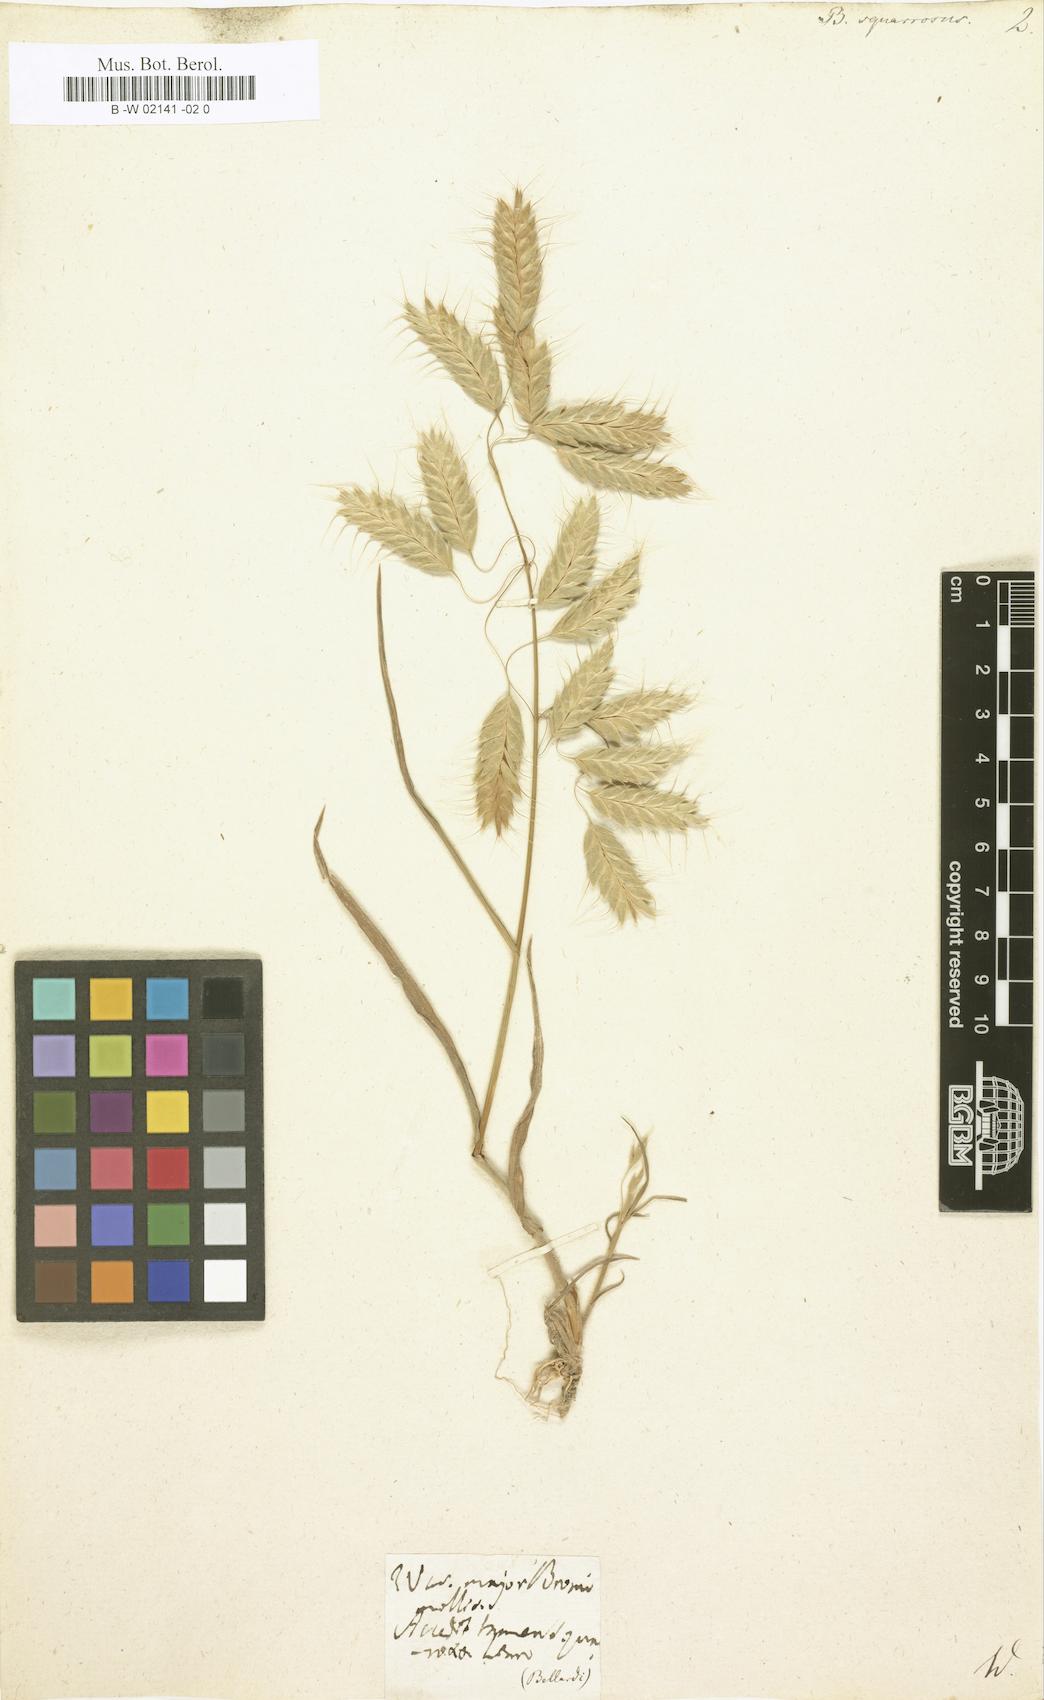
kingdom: Plantae
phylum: Tracheophyta
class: Liliopsida
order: Poales
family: Poaceae
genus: Bromus
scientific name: Bromus squarrosus
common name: Corn brome
